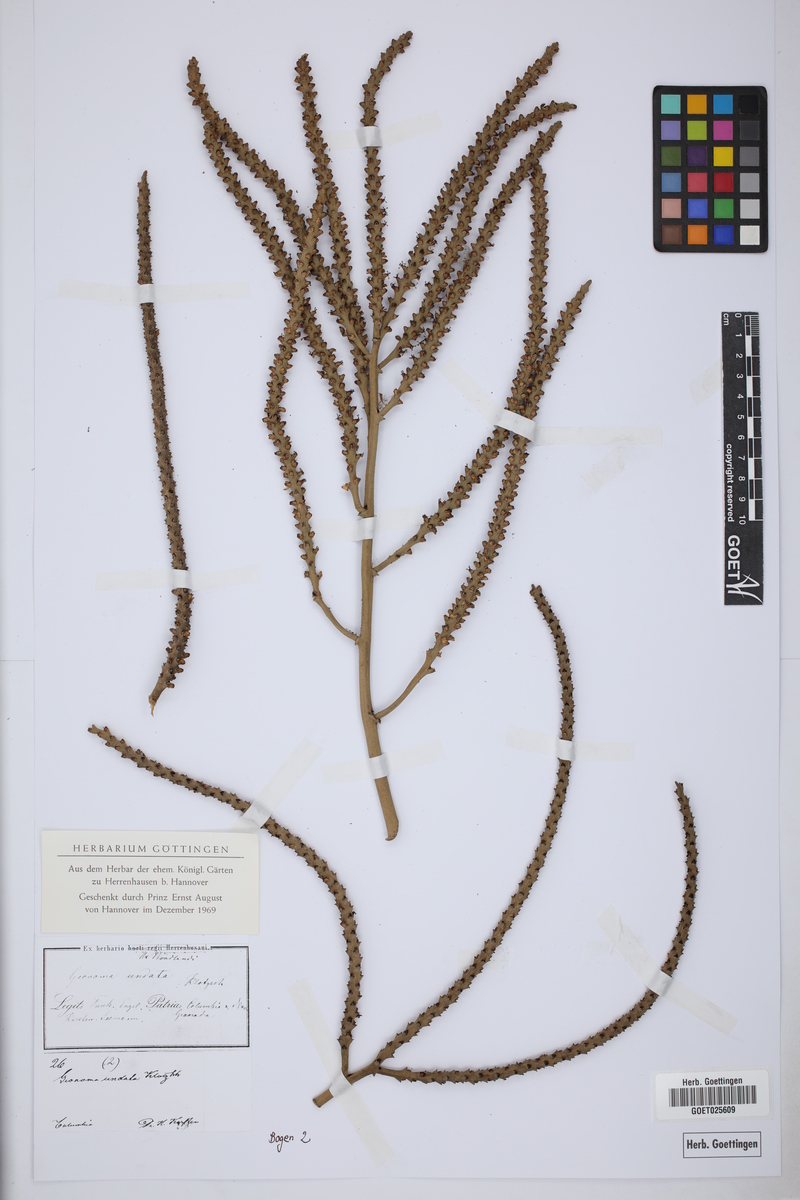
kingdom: Plantae
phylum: Tracheophyta
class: Liliopsida
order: Arecales
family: Arecaceae
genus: Geonoma
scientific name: Geonoma undata
